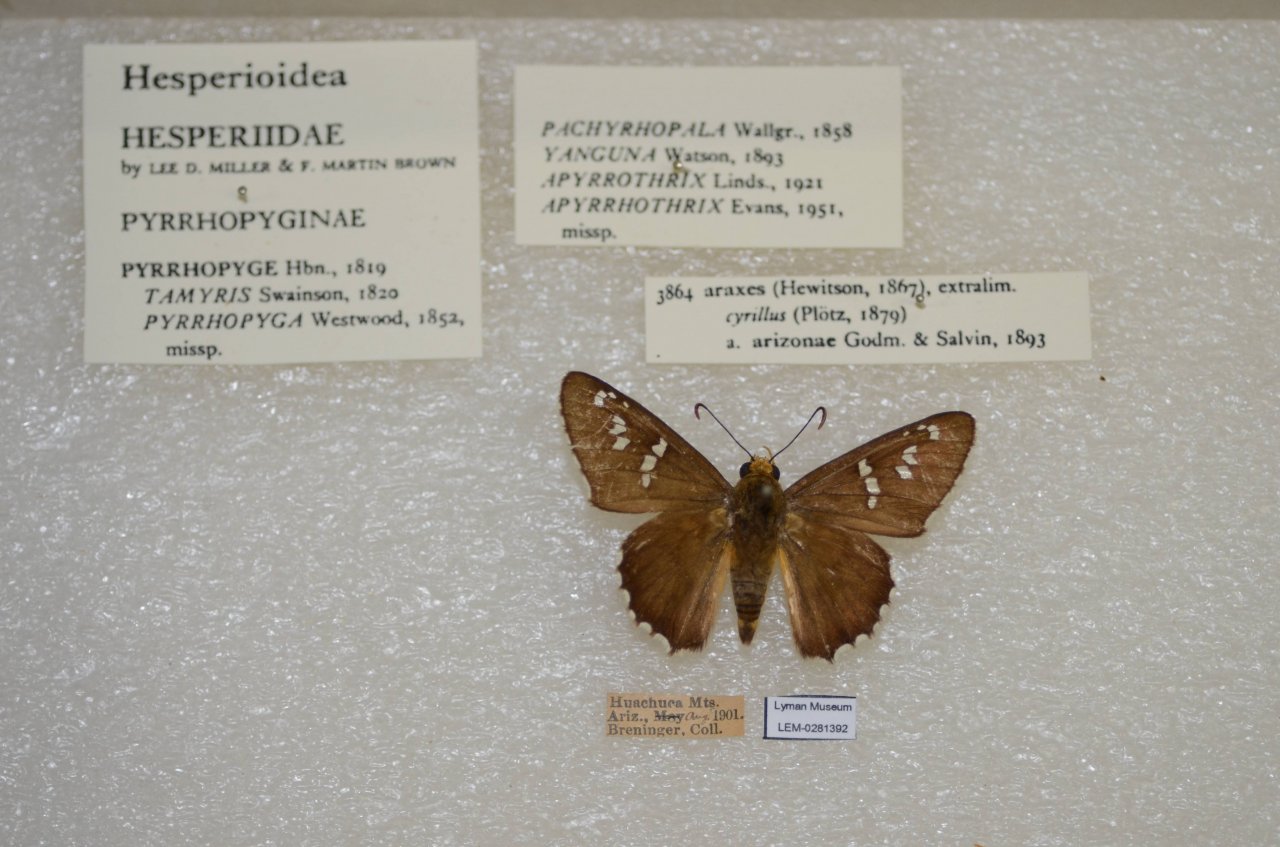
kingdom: Animalia
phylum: Arthropoda
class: Insecta
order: Lepidoptera
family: Hesperiidae
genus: Pyrrhopyge
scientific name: Pyrrhopyge araxes
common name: Dull Firetip
